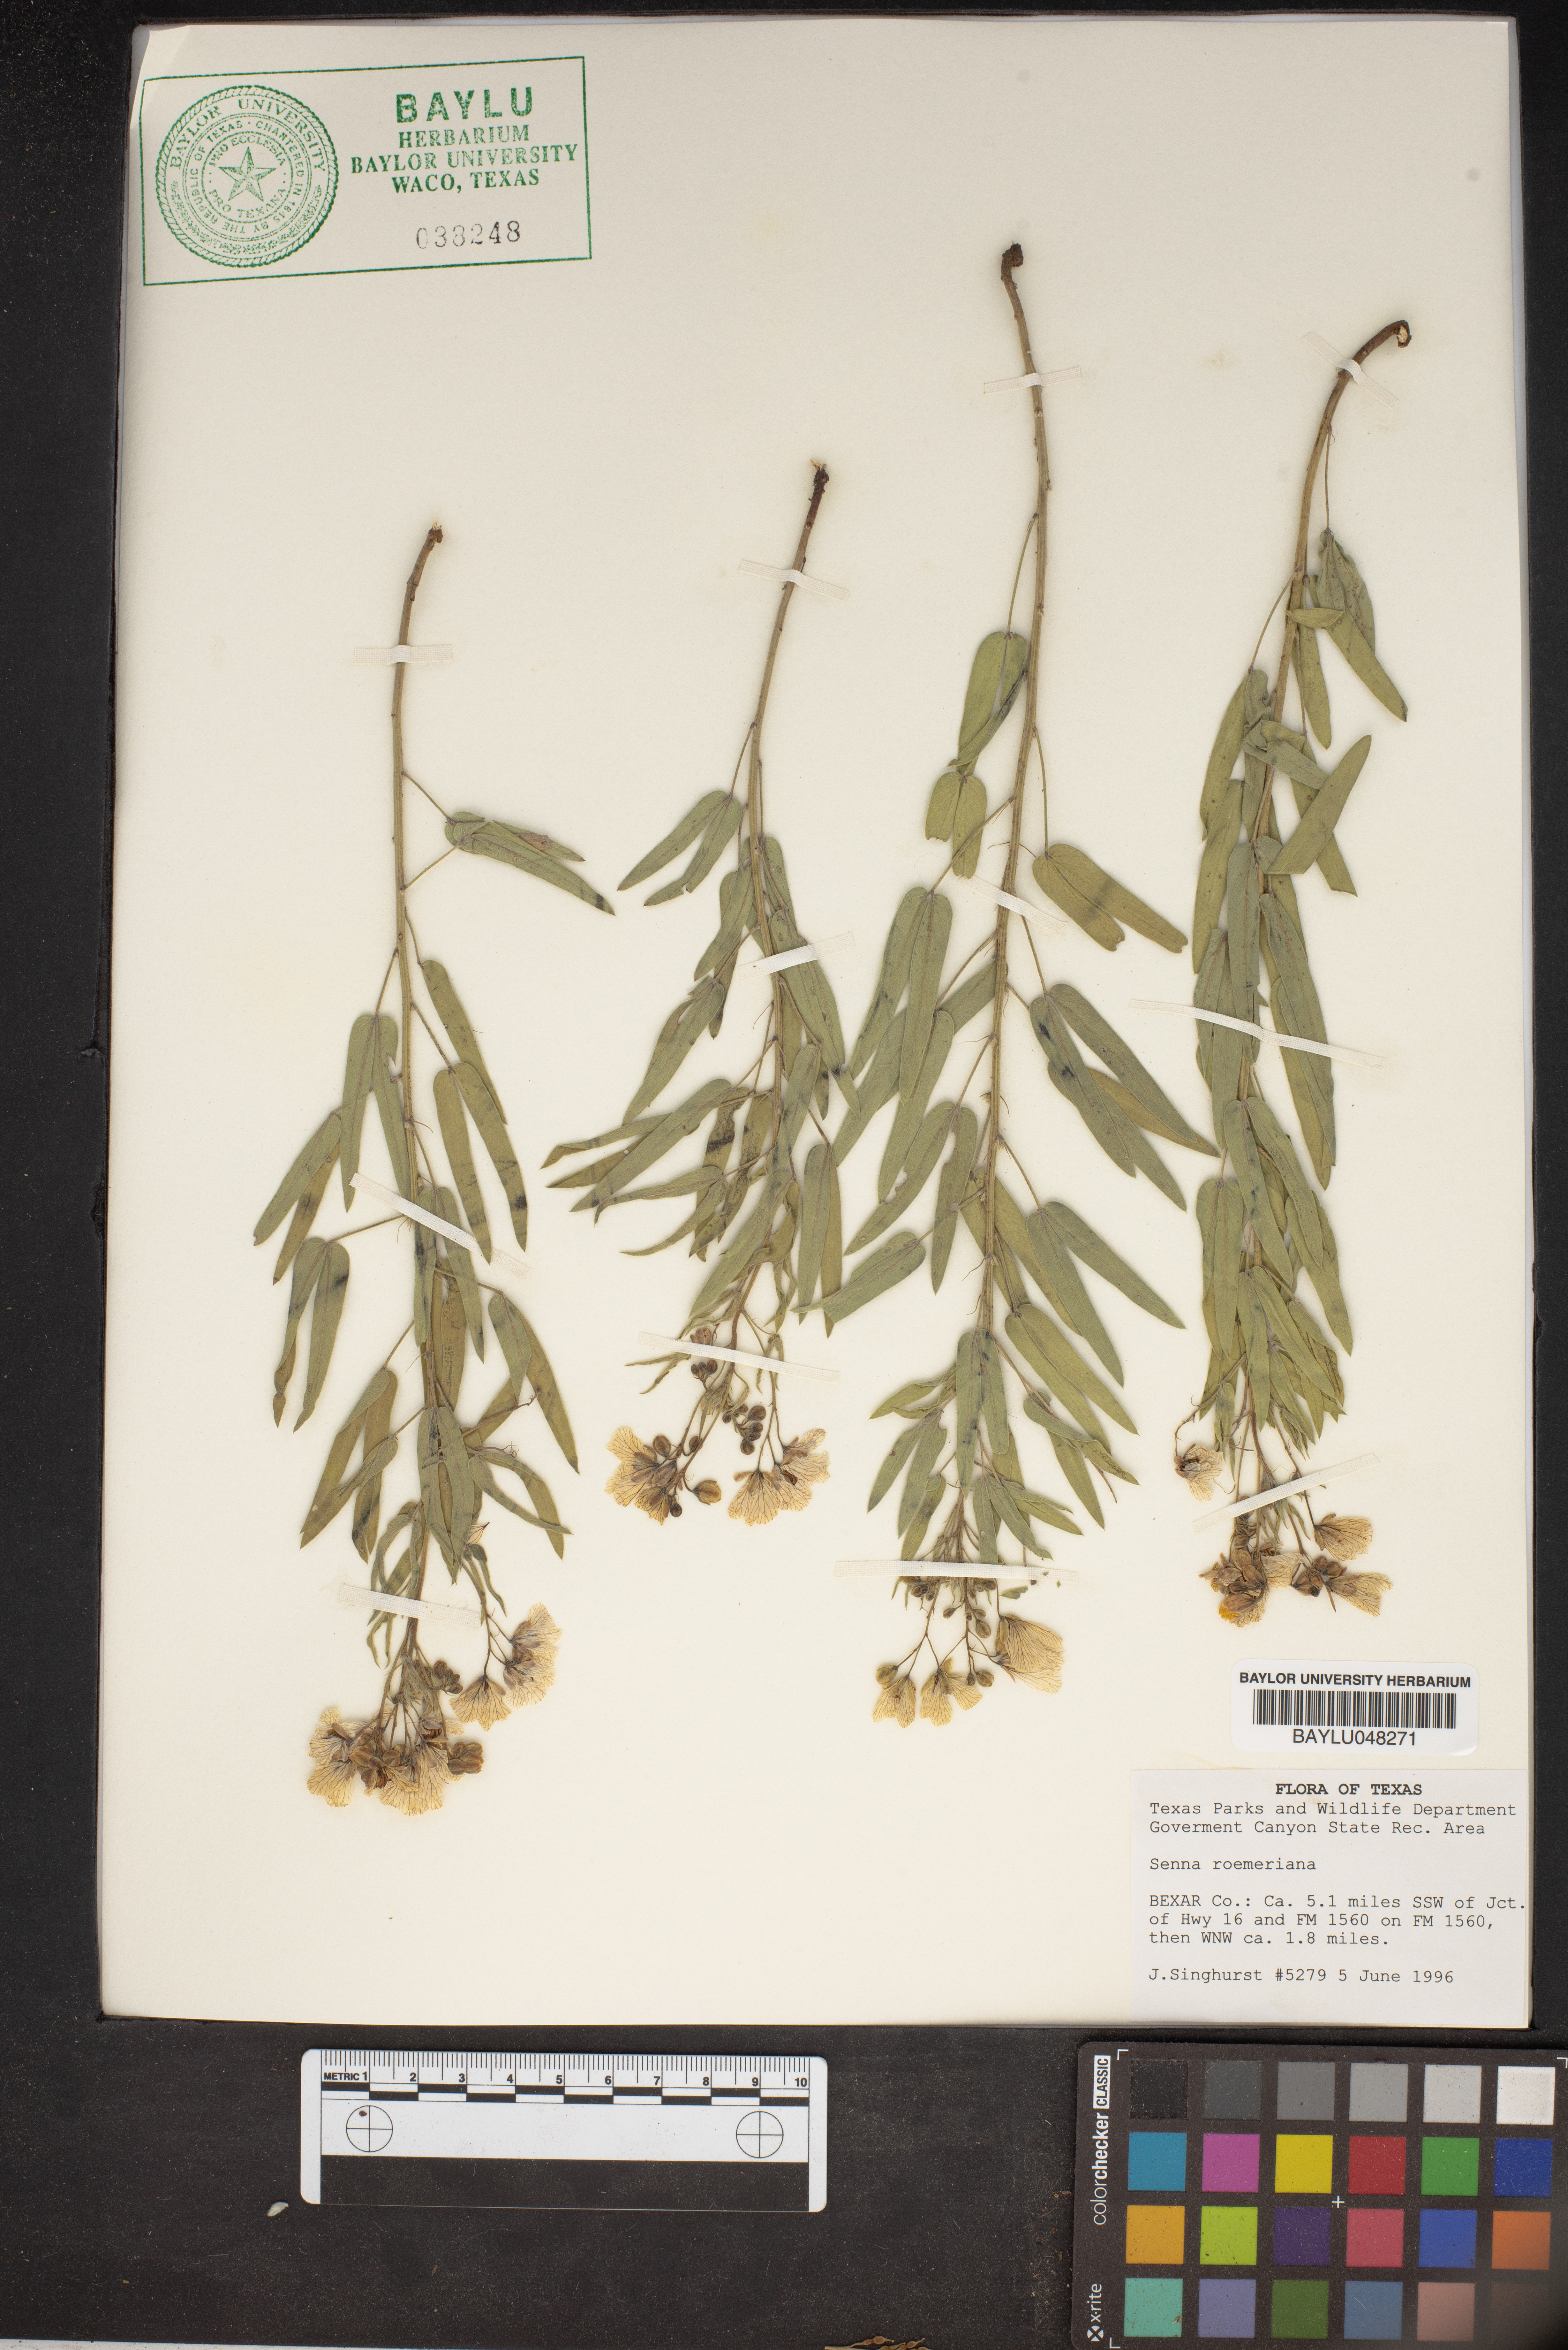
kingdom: Plantae
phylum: Tracheophyta
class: Magnoliopsida
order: Fabales
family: Fabaceae
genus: Senna
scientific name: Senna roemeriana
